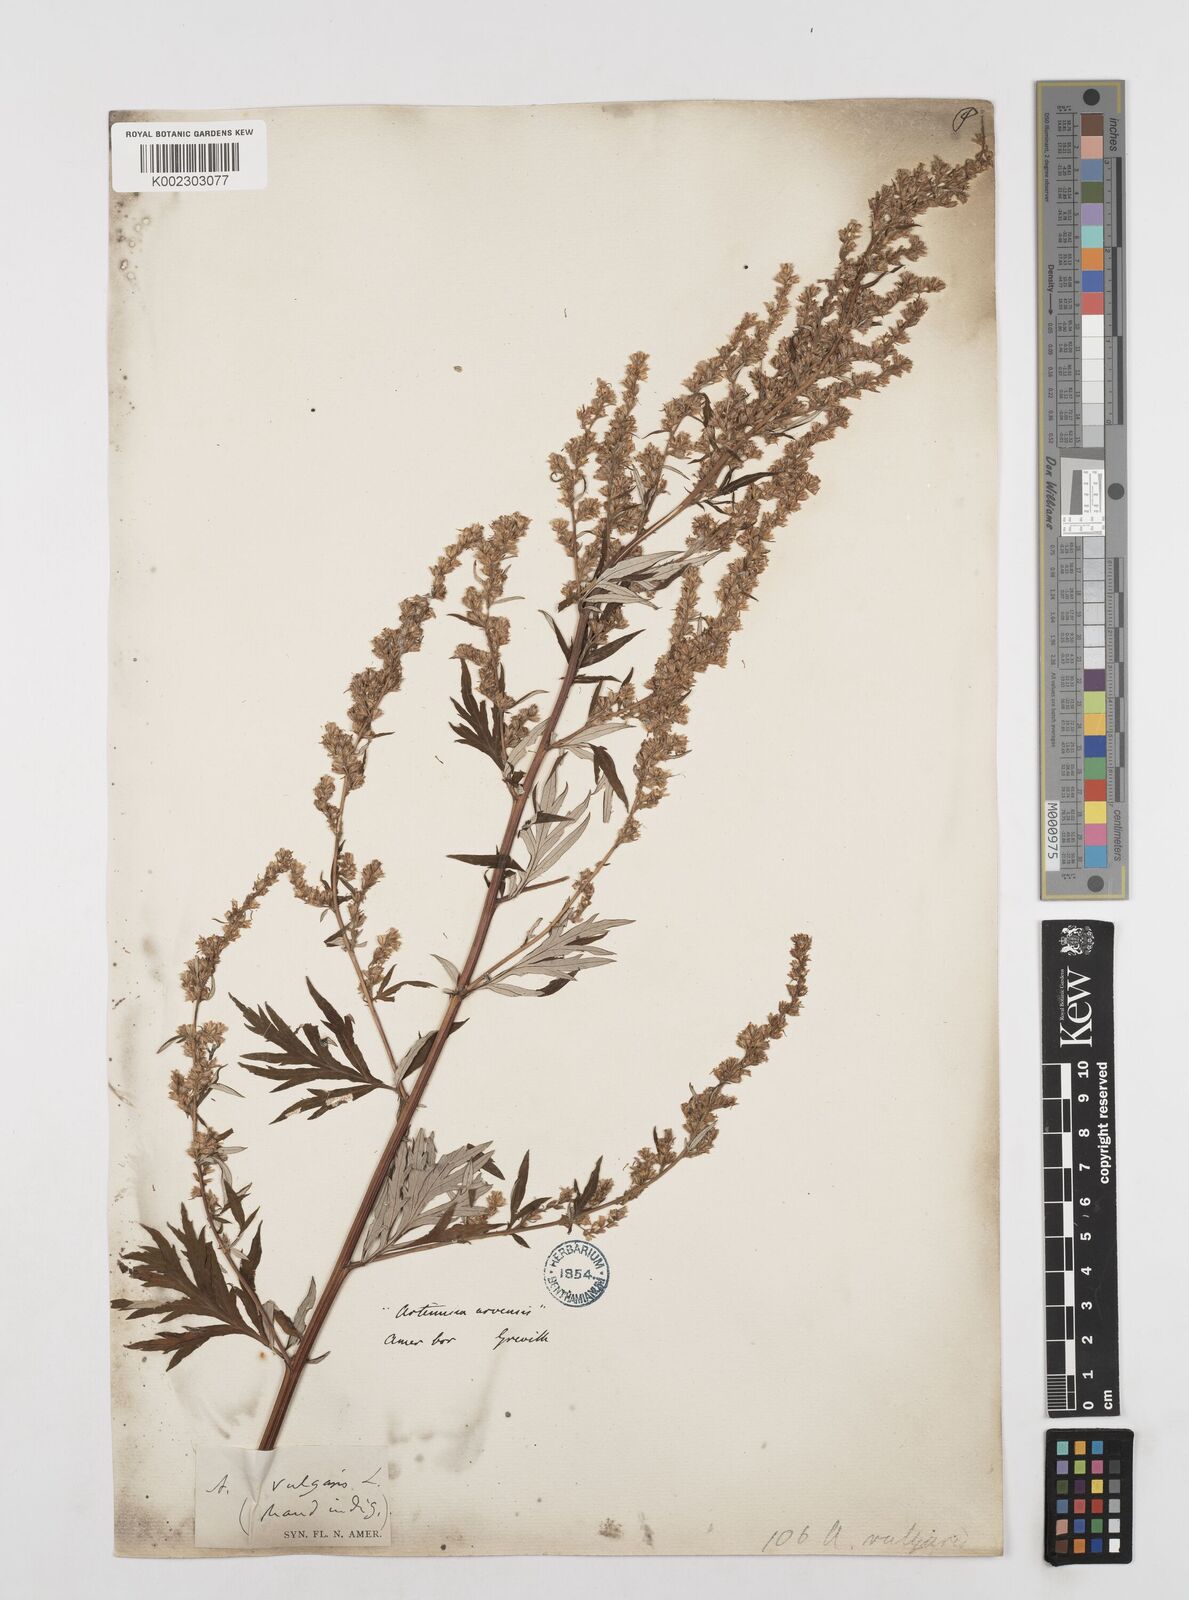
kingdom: Plantae
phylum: Tracheophyta
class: Magnoliopsida
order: Asterales
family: Asteraceae
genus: Artemisia
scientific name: Artemisia vulgaris
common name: Mugwort
